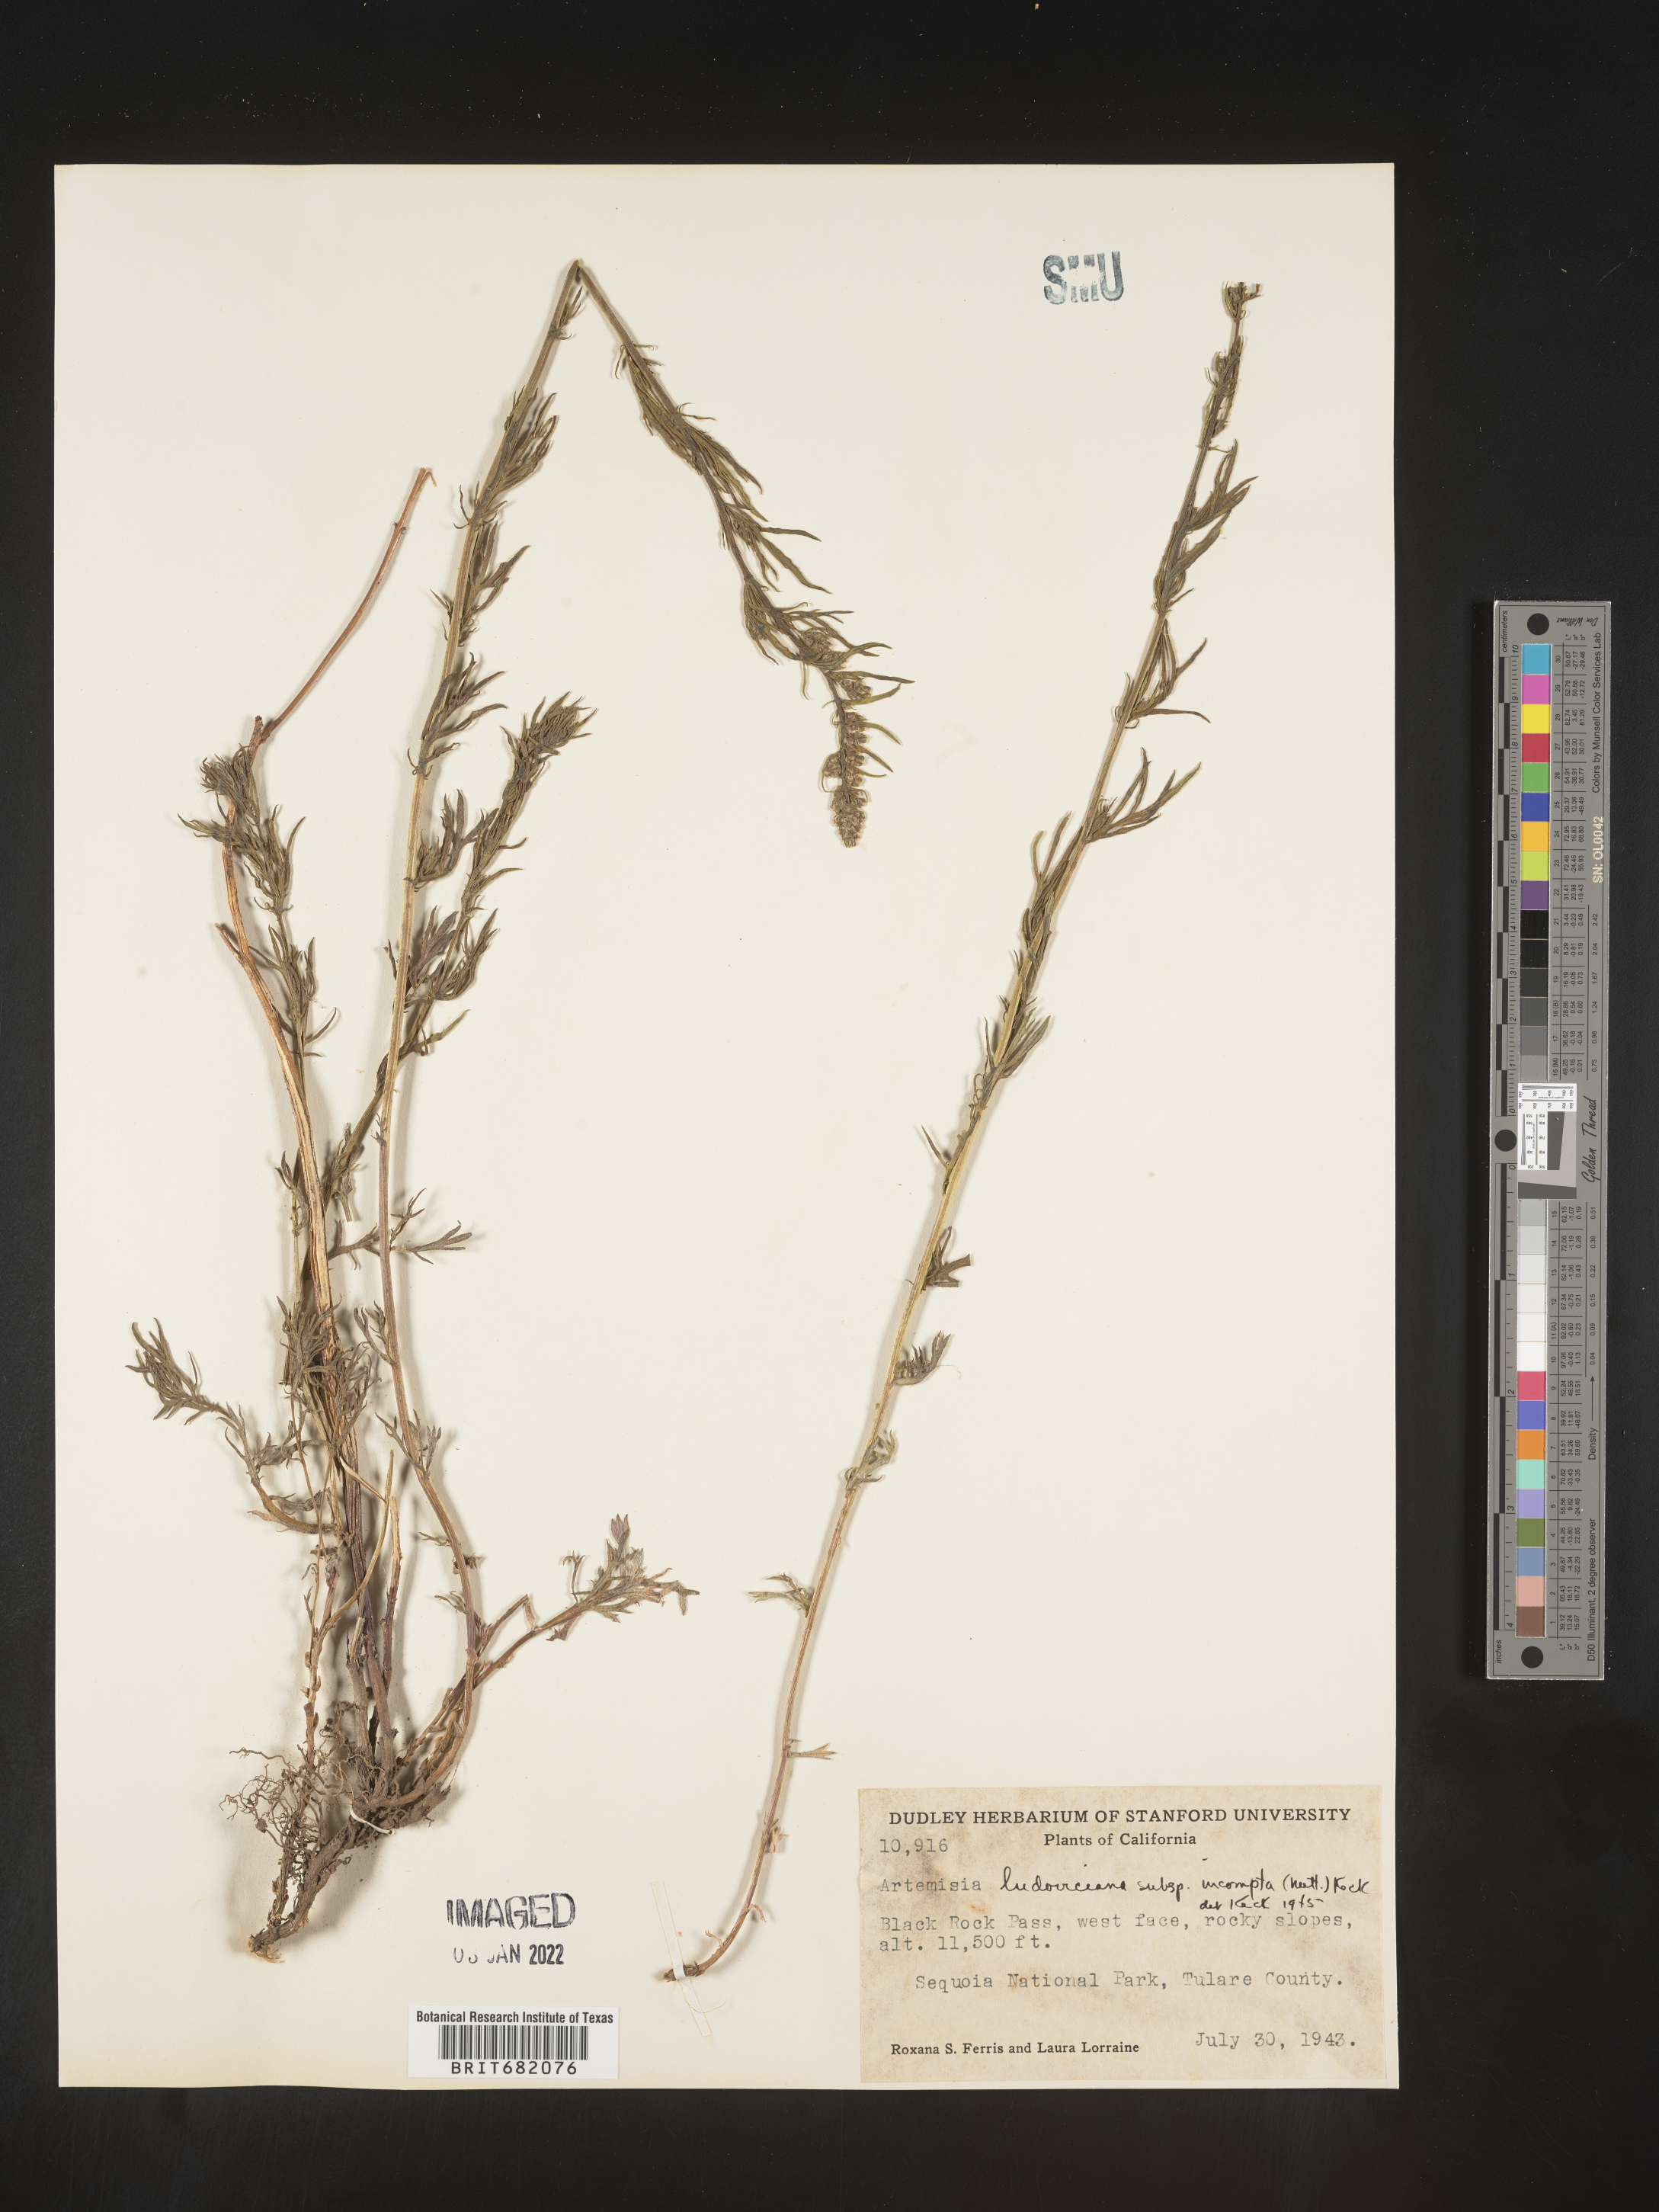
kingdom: Plantae
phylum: Tracheophyta
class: Magnoliopsida
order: Asterales
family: Asteraceae
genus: Artemisia
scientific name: Artemisia ludoviciana
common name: Western mugwort
